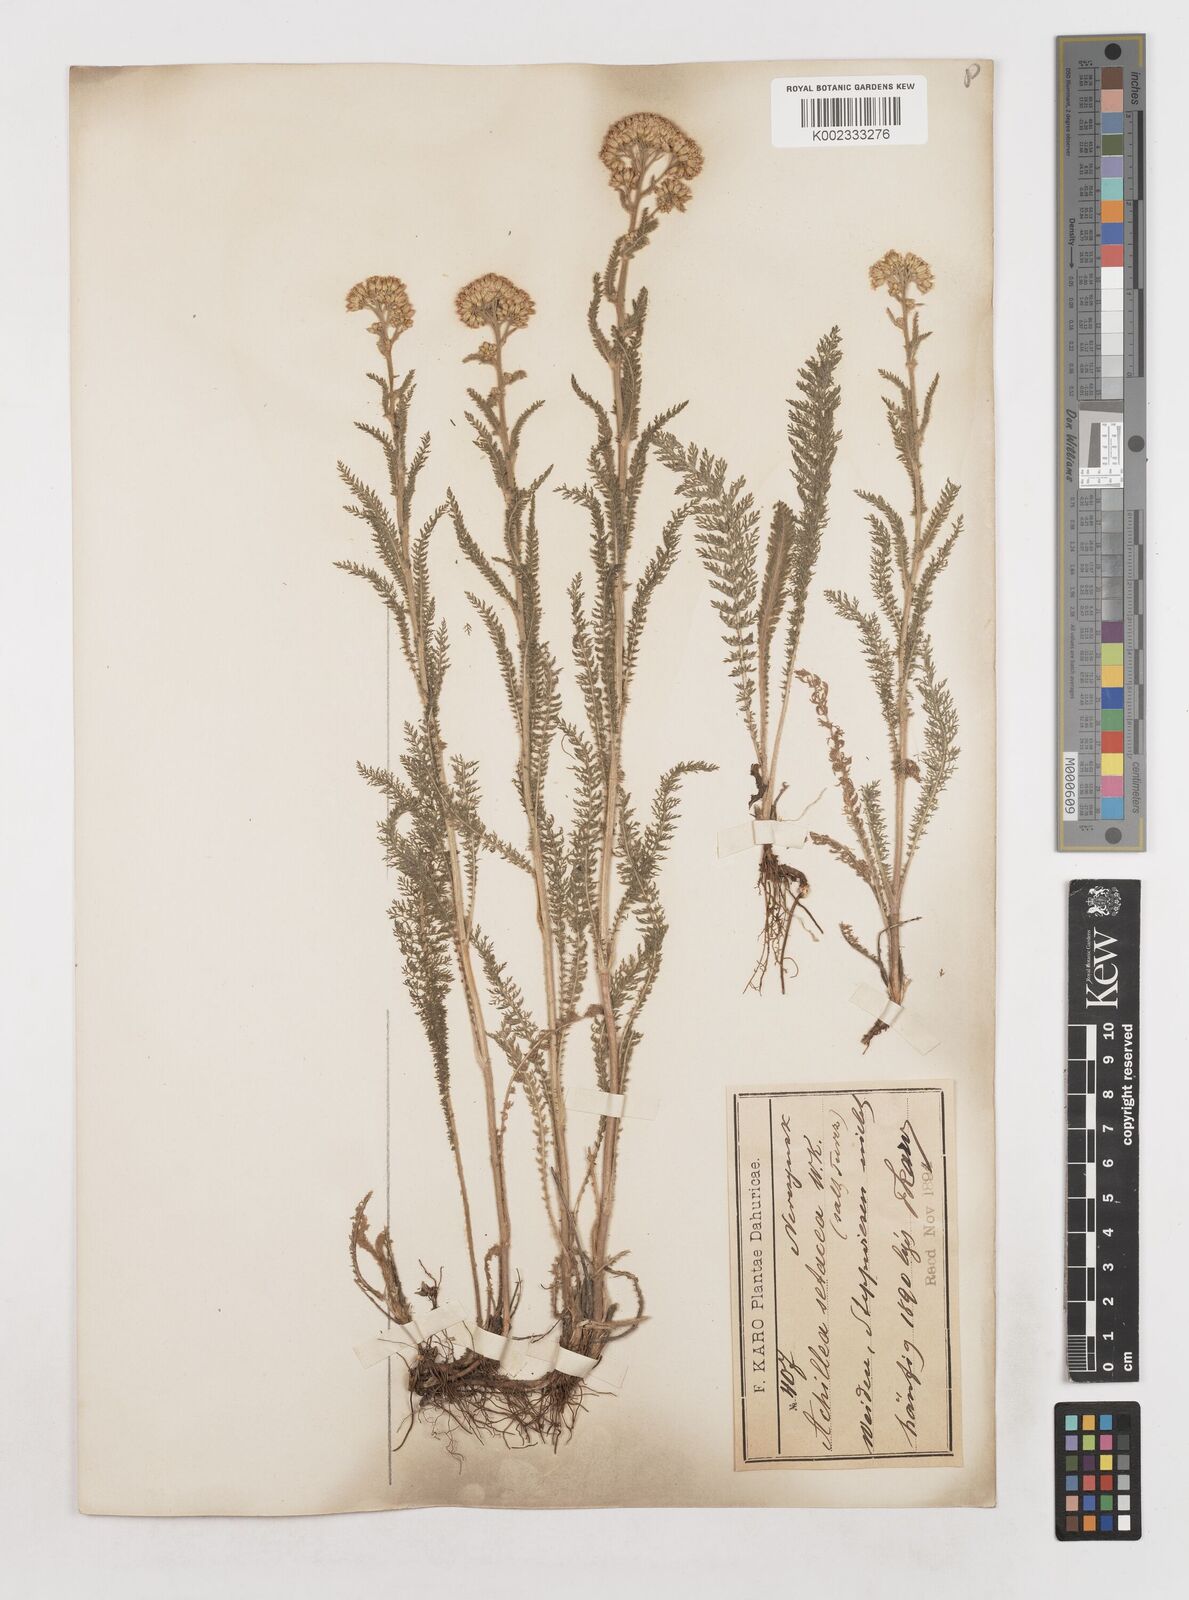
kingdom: Plantae
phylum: Tracheophyta
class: Magnoliopsida
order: Asterales
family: Asteraceae
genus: Achillea
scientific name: Achillea setacea
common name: Bristly yarrow
